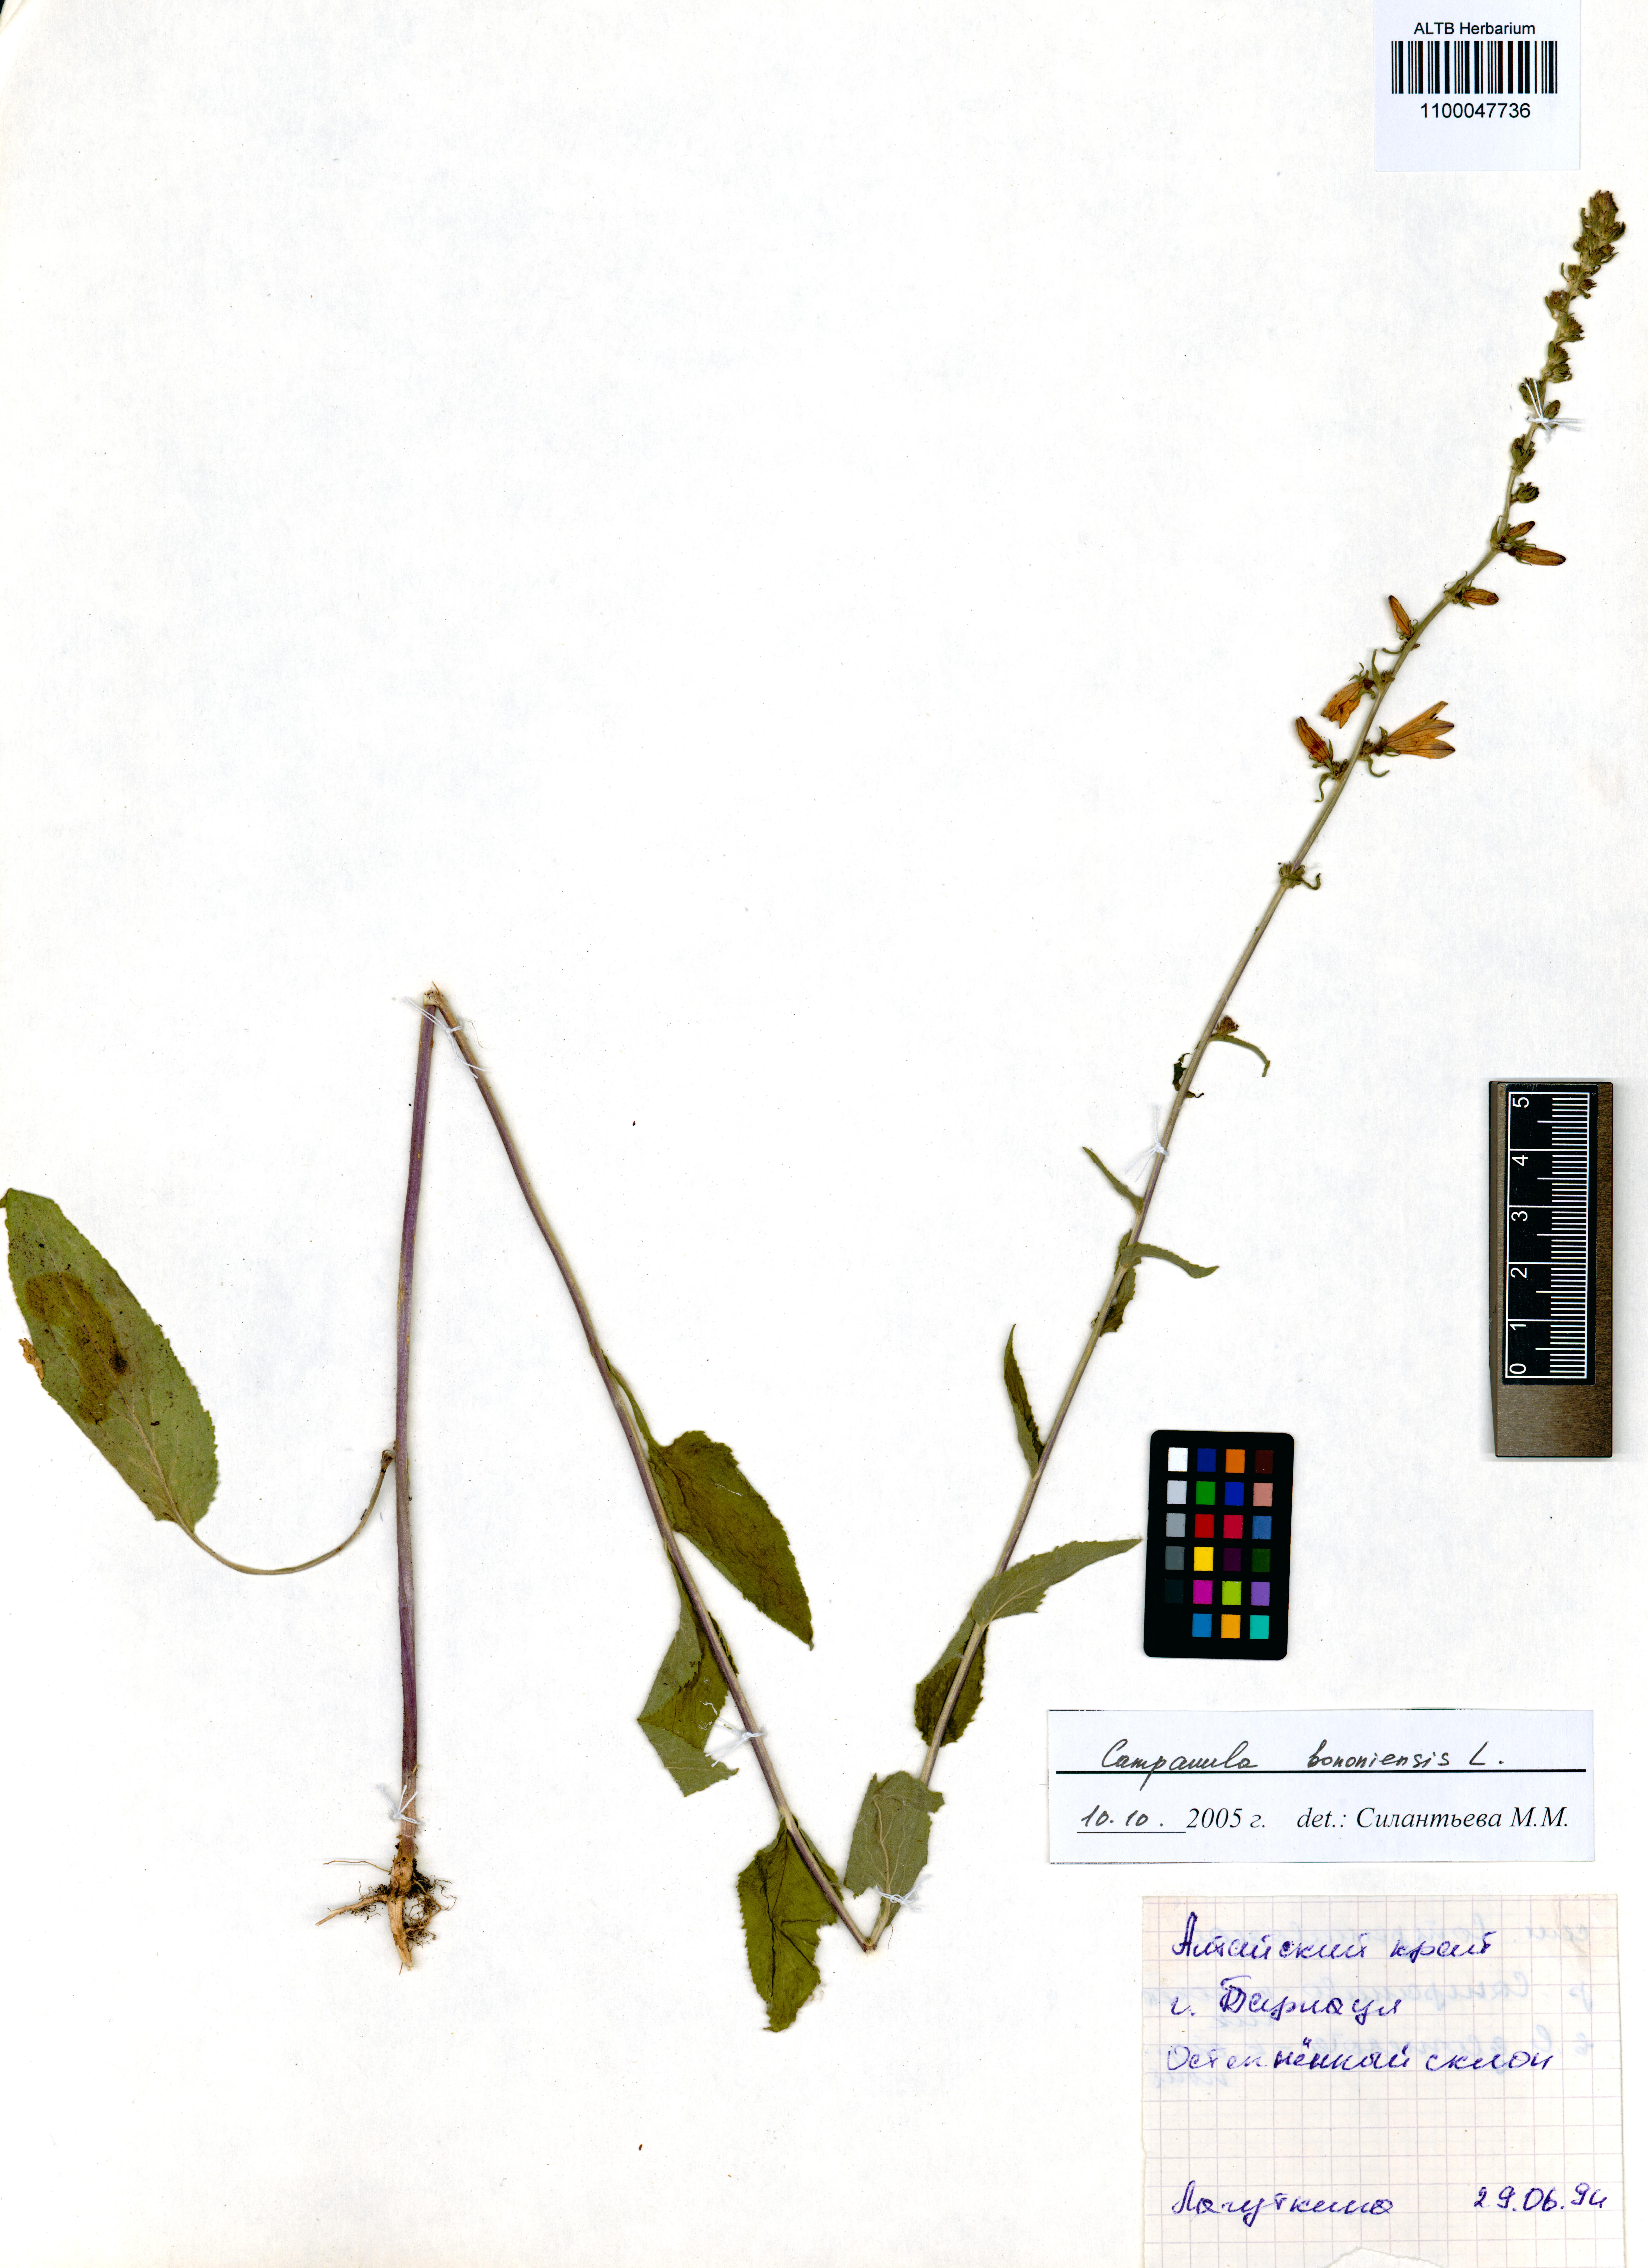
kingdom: Plantae
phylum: Tracheophyta
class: Magnoliopsida
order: Asterales
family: Campanulaceae
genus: Campanula
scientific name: Campanula bononiensis
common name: Pale bellflower
